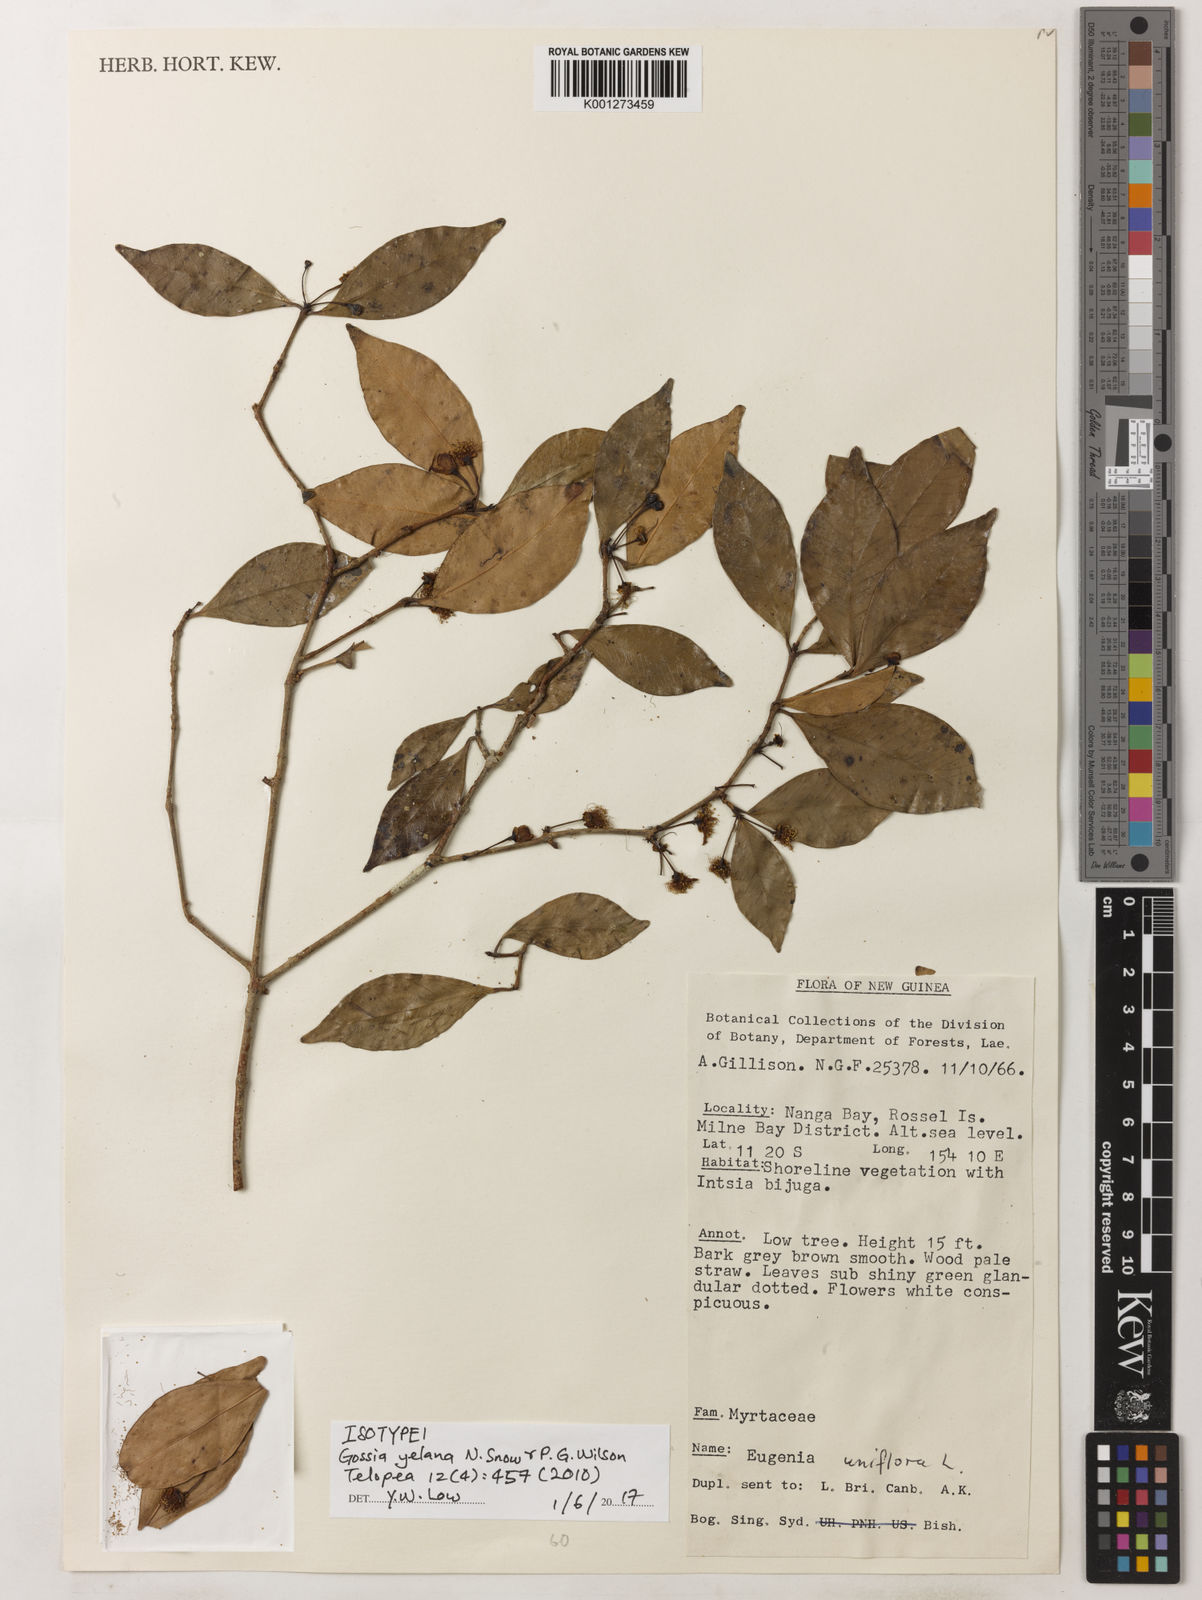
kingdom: Plantae
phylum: Tracheophyta
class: Magnoliopsida
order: Myrtales
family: Myrtaceae
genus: Gossia
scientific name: Gossia yelana
